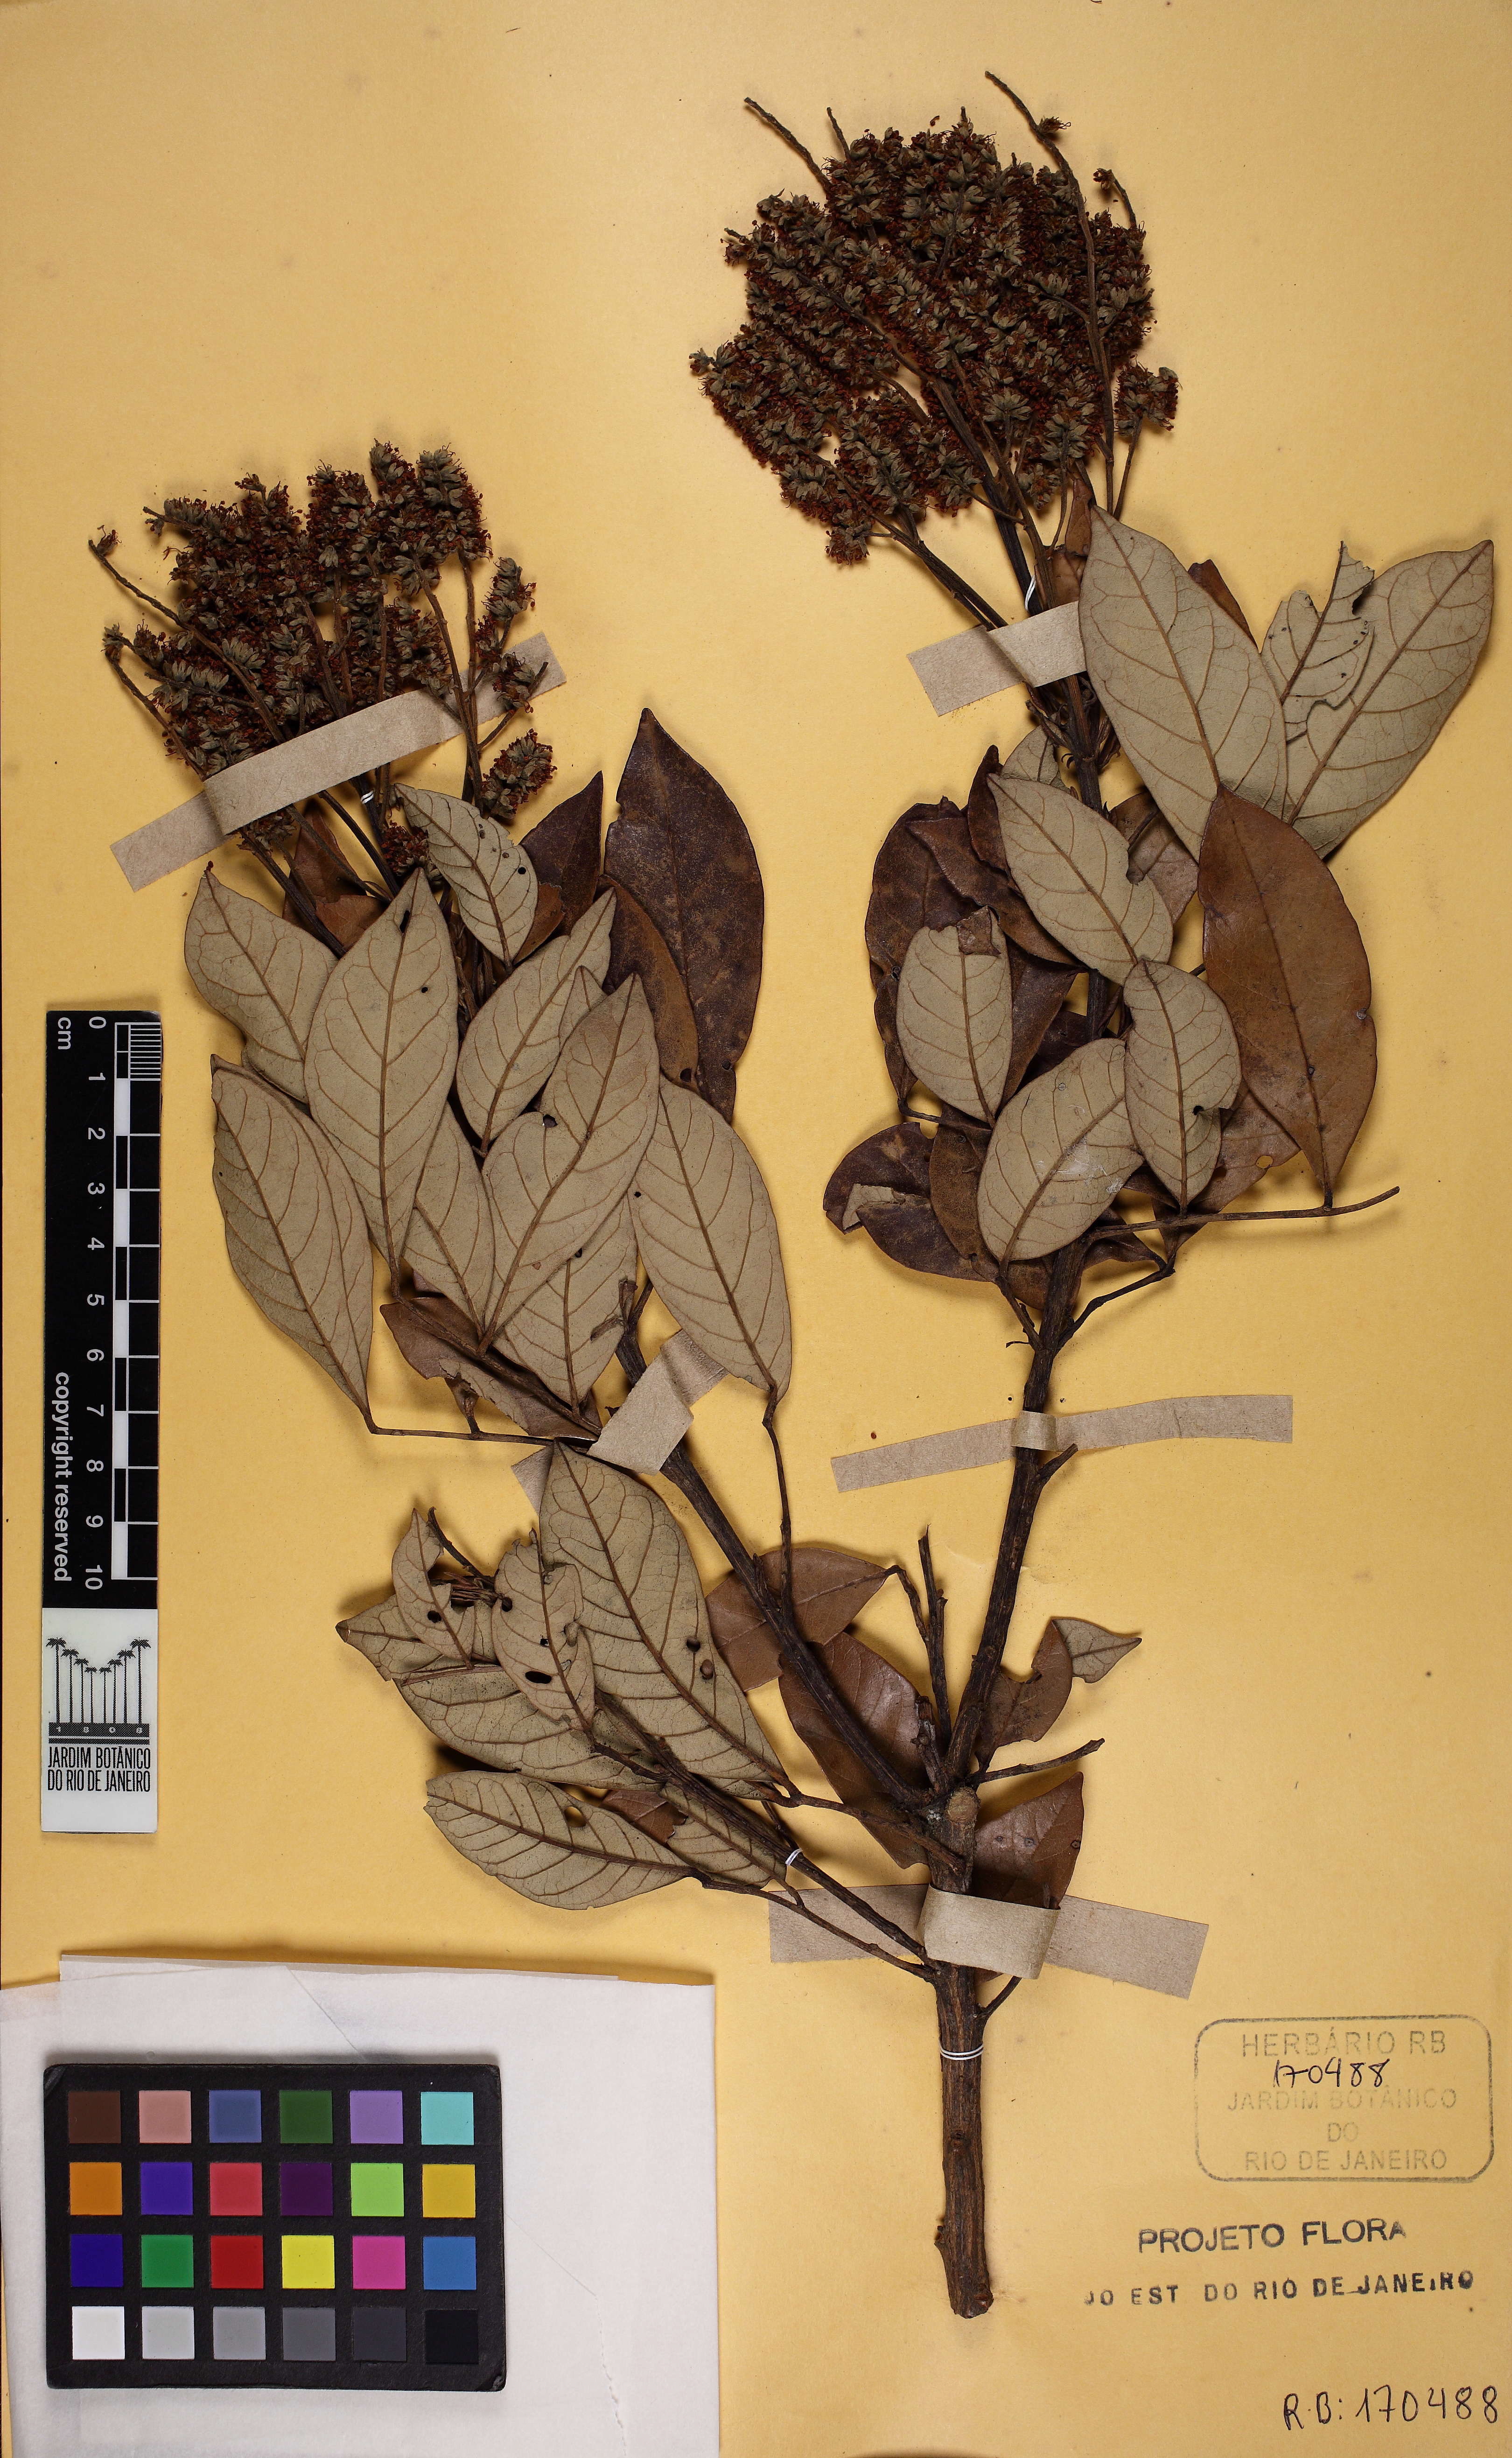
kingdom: Plantae
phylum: Tracheophyta
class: Magnoliopsida
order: Fabales
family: Fabaceae
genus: Tachigali
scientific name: Tachigali
